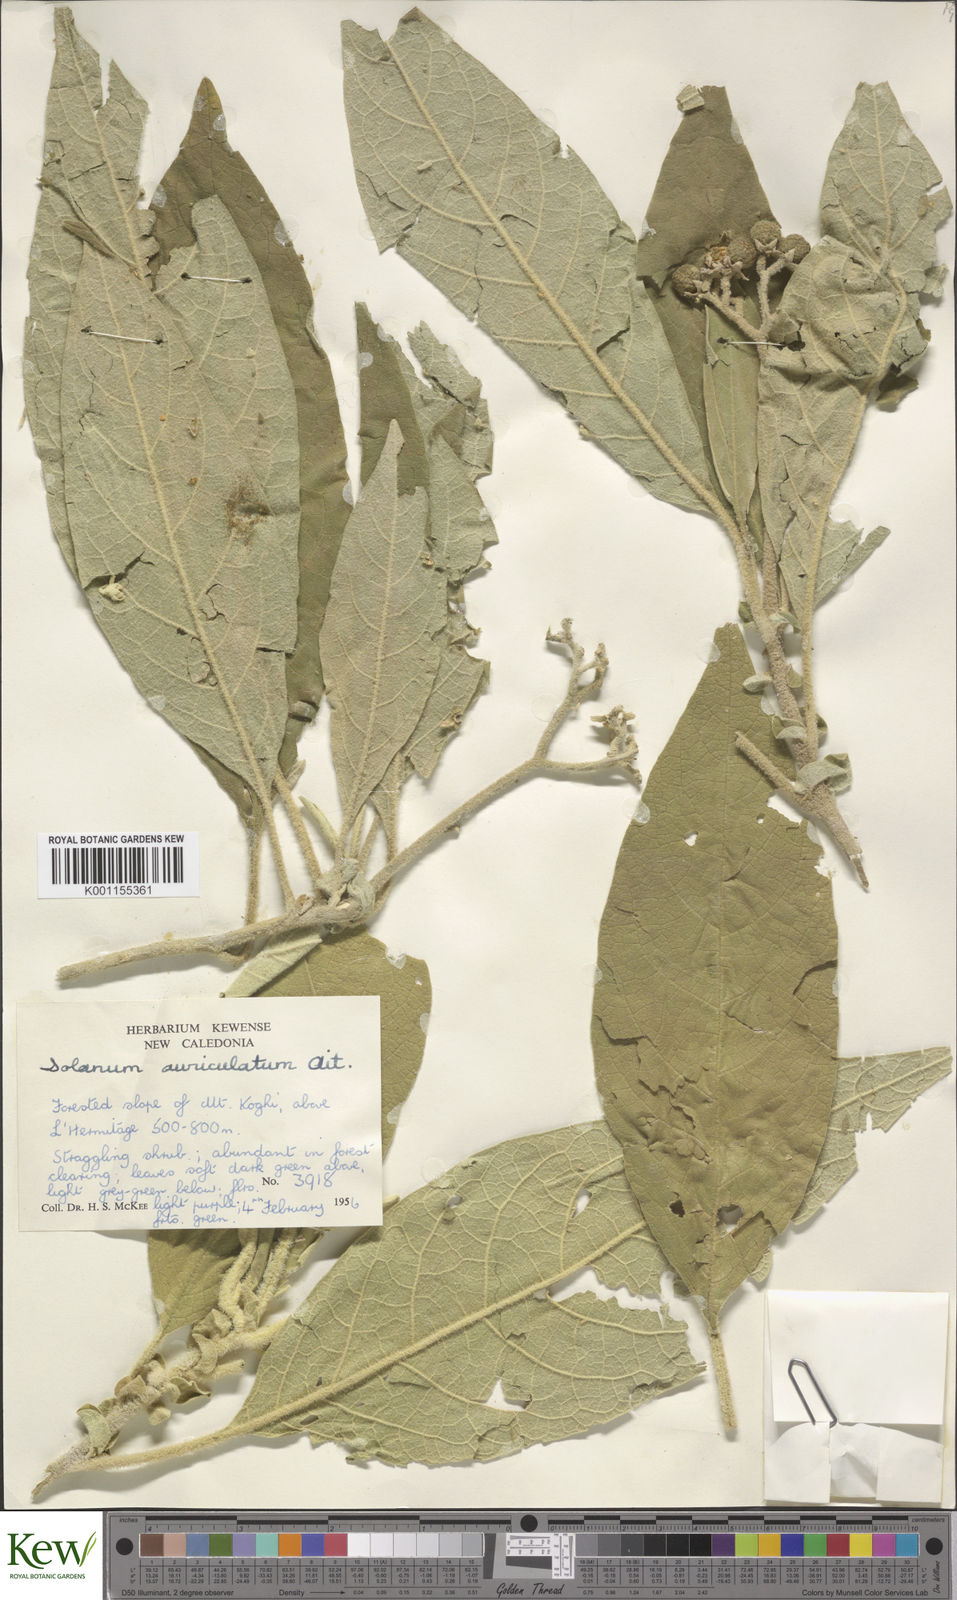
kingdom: Plantae
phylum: Tracheophyta
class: Magnoliopsida
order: Solanales
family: Solanaceae
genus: Solanum
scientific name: Solanum mauritianum
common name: Earleaf nightshade
